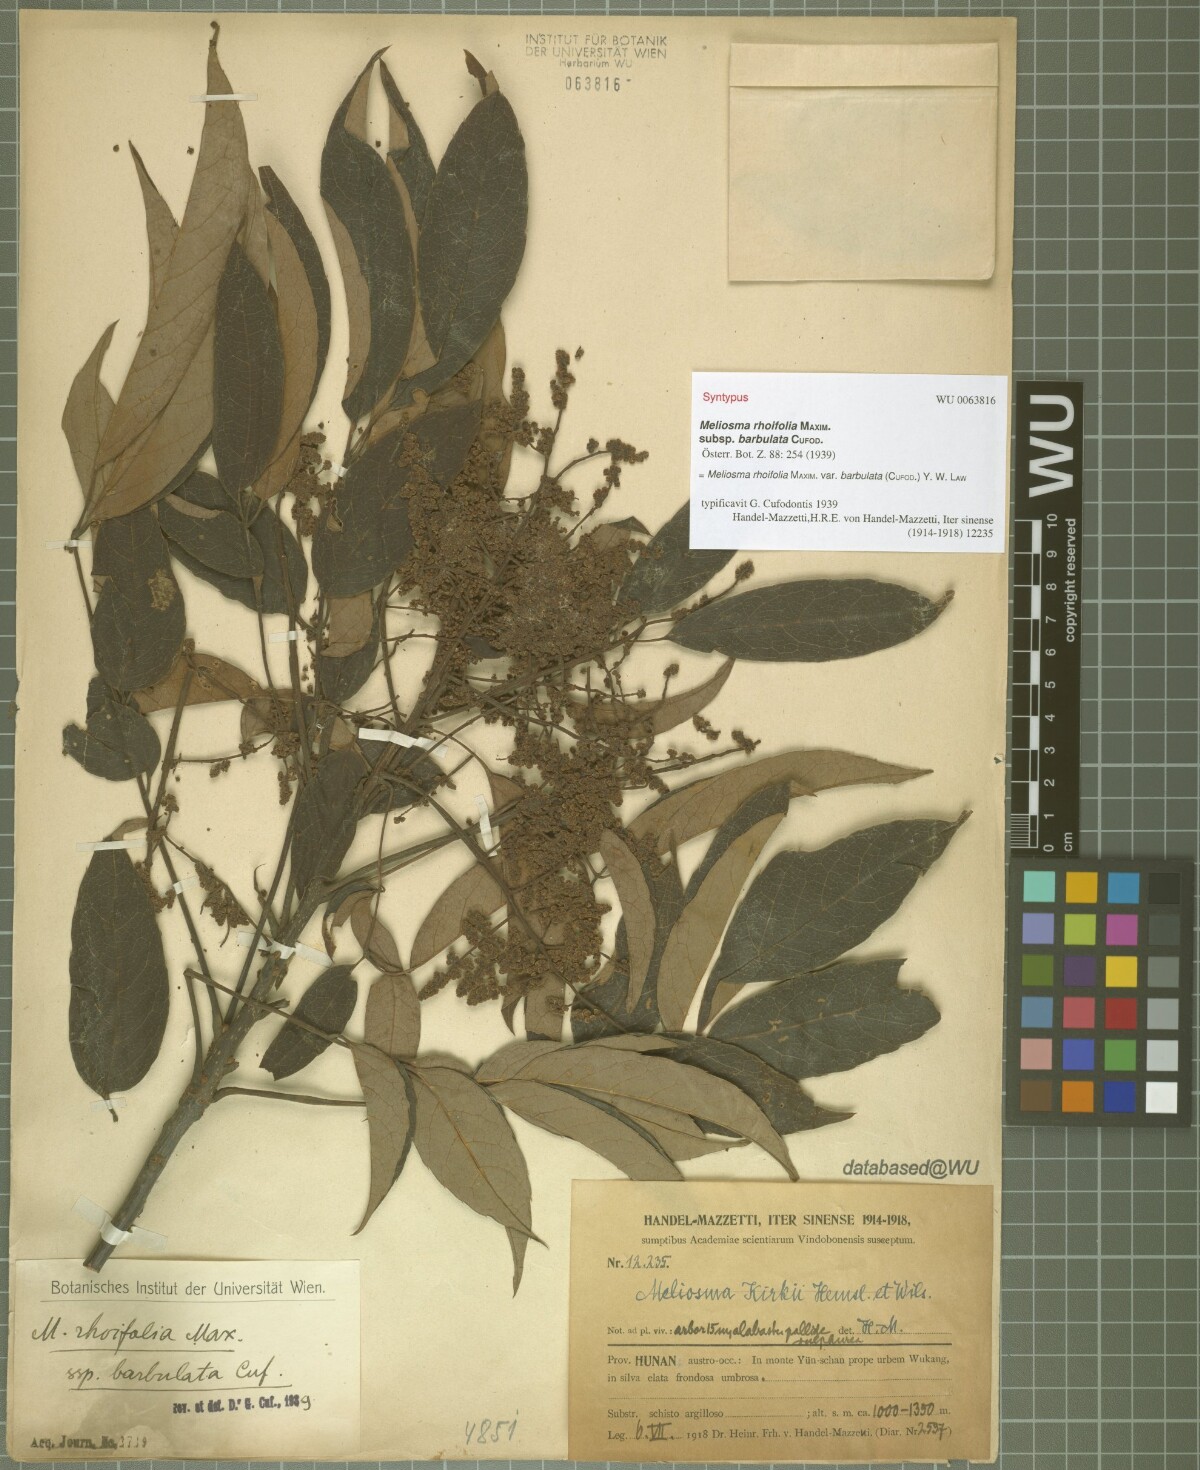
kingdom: Plantae
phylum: Tracheophyta
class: Magnoliopsida
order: Proteales
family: Sabiaceae
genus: Meliosma
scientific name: Meliosma rhoifolia
